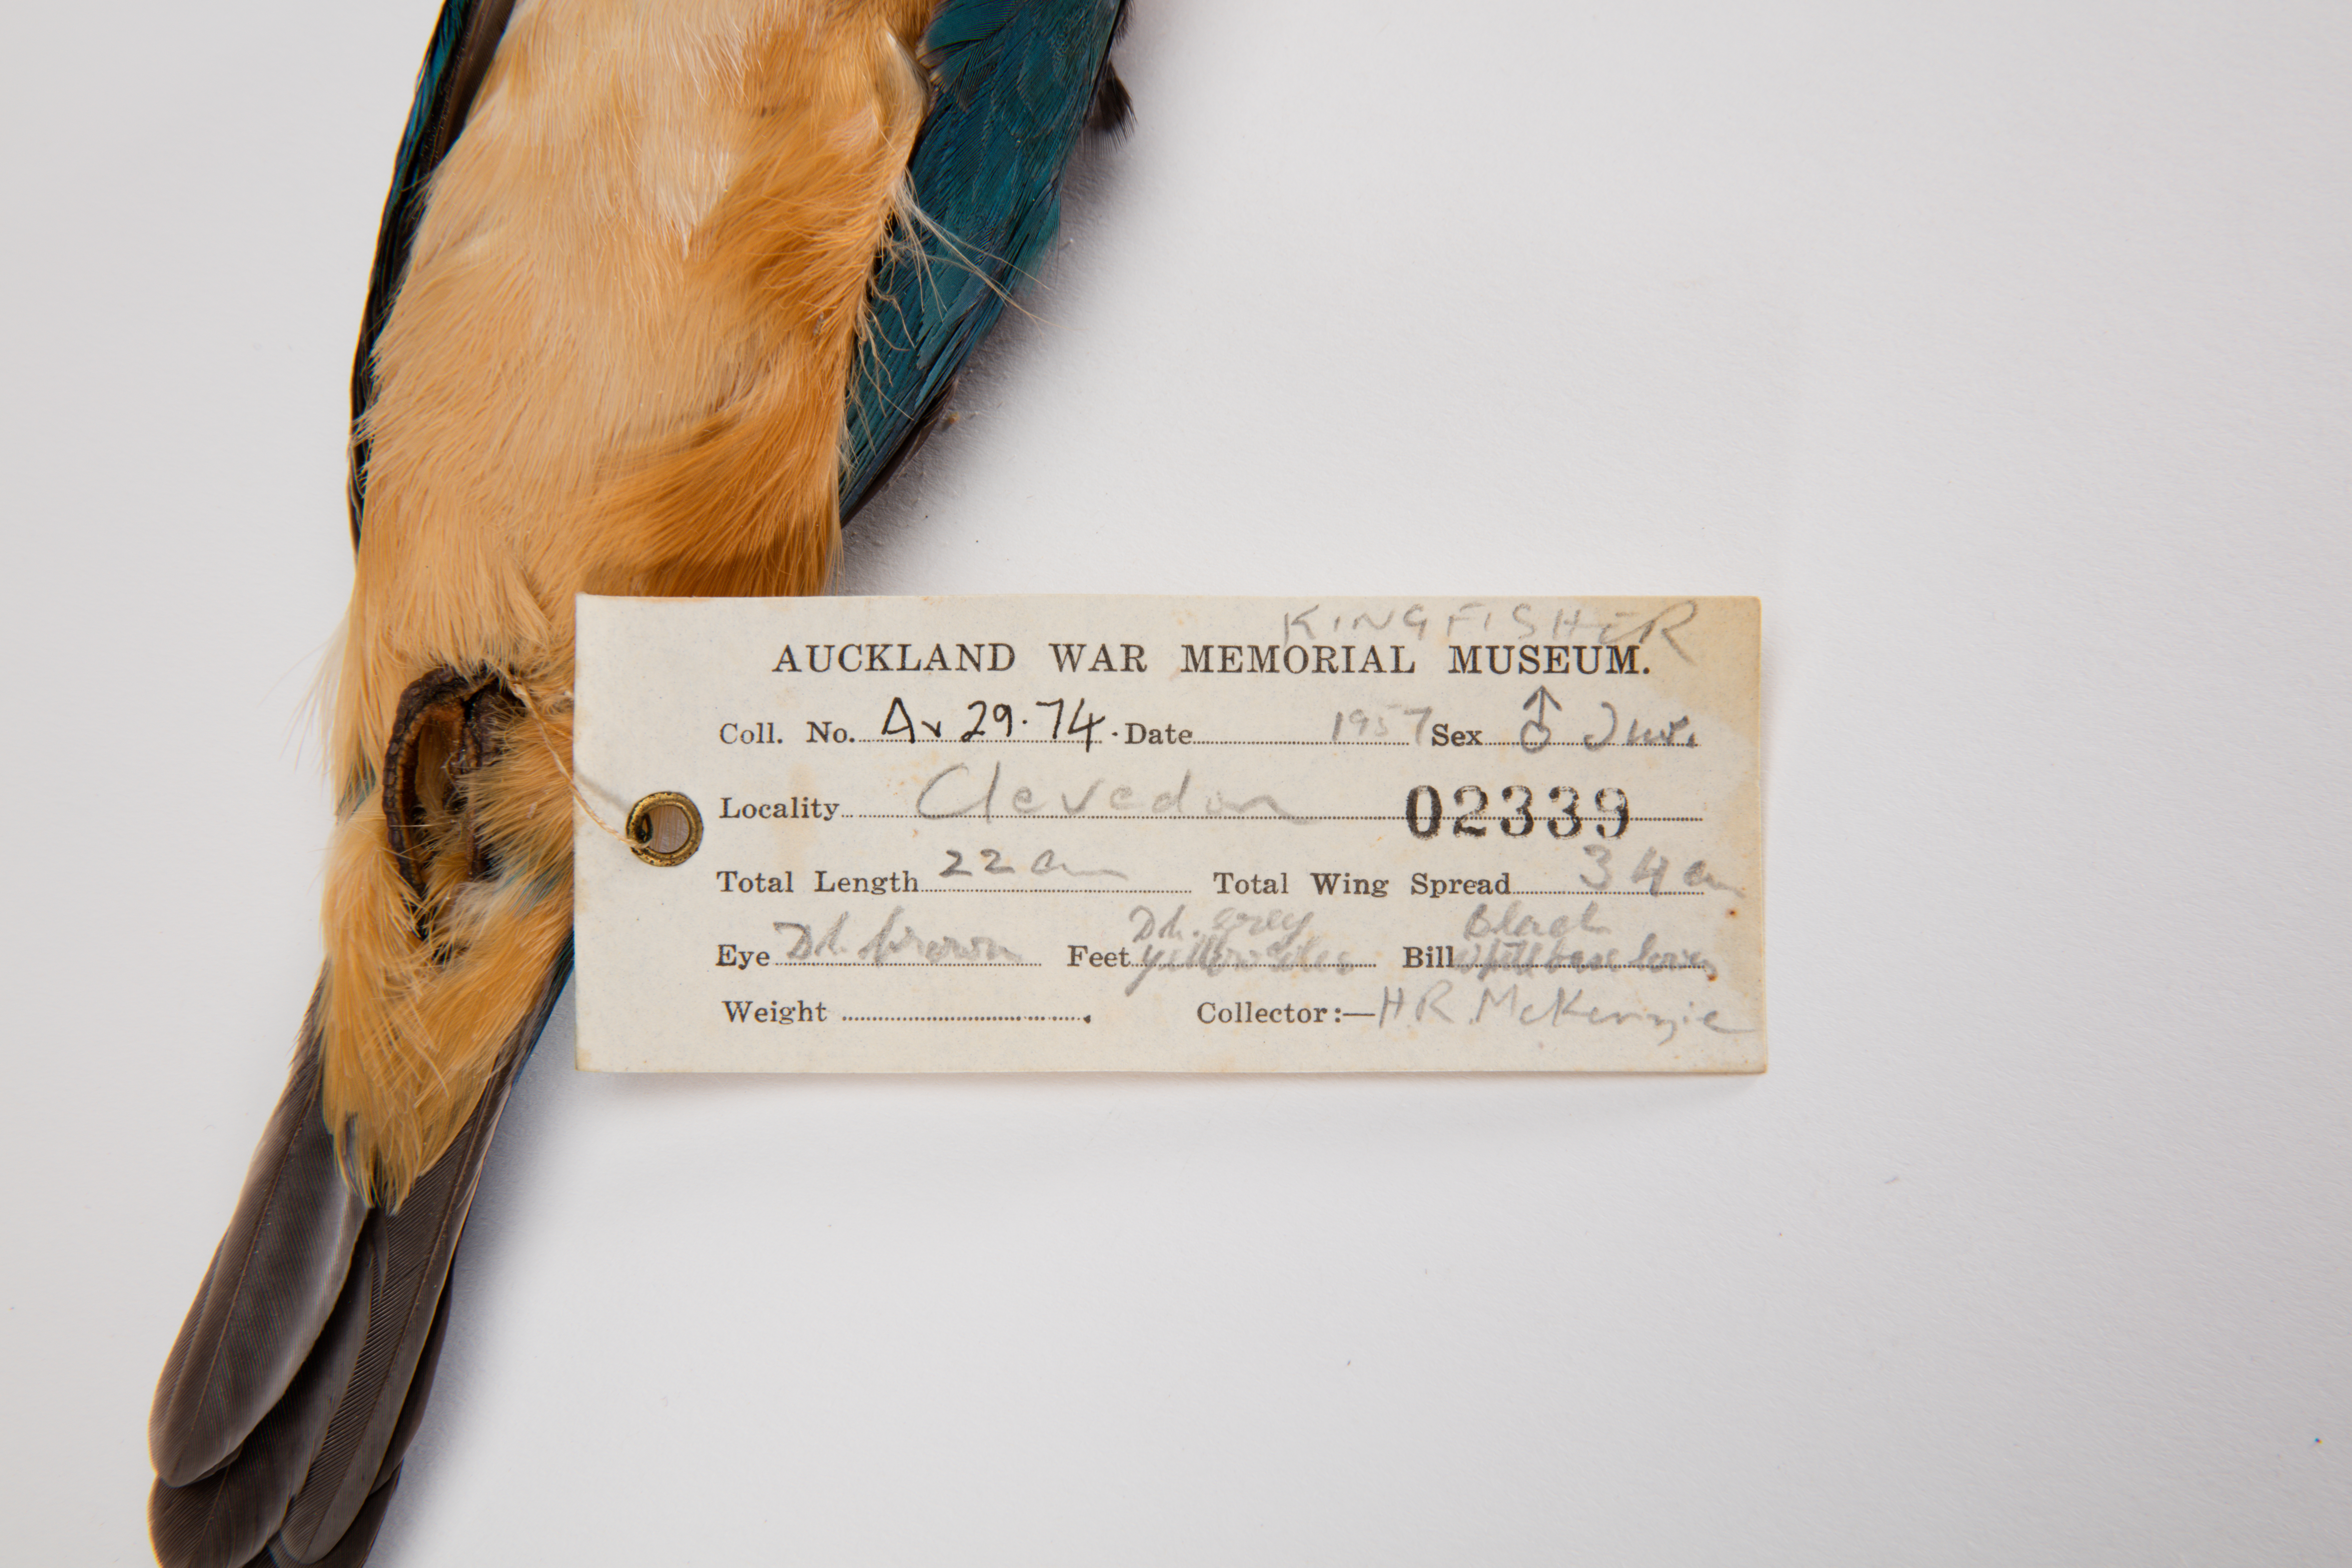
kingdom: Animalia
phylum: Chordata
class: Aves
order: Coraciiformes
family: Alcedinidae
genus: Todiramphus
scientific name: Todiramphus sanctus
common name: Sacred kingfisher
